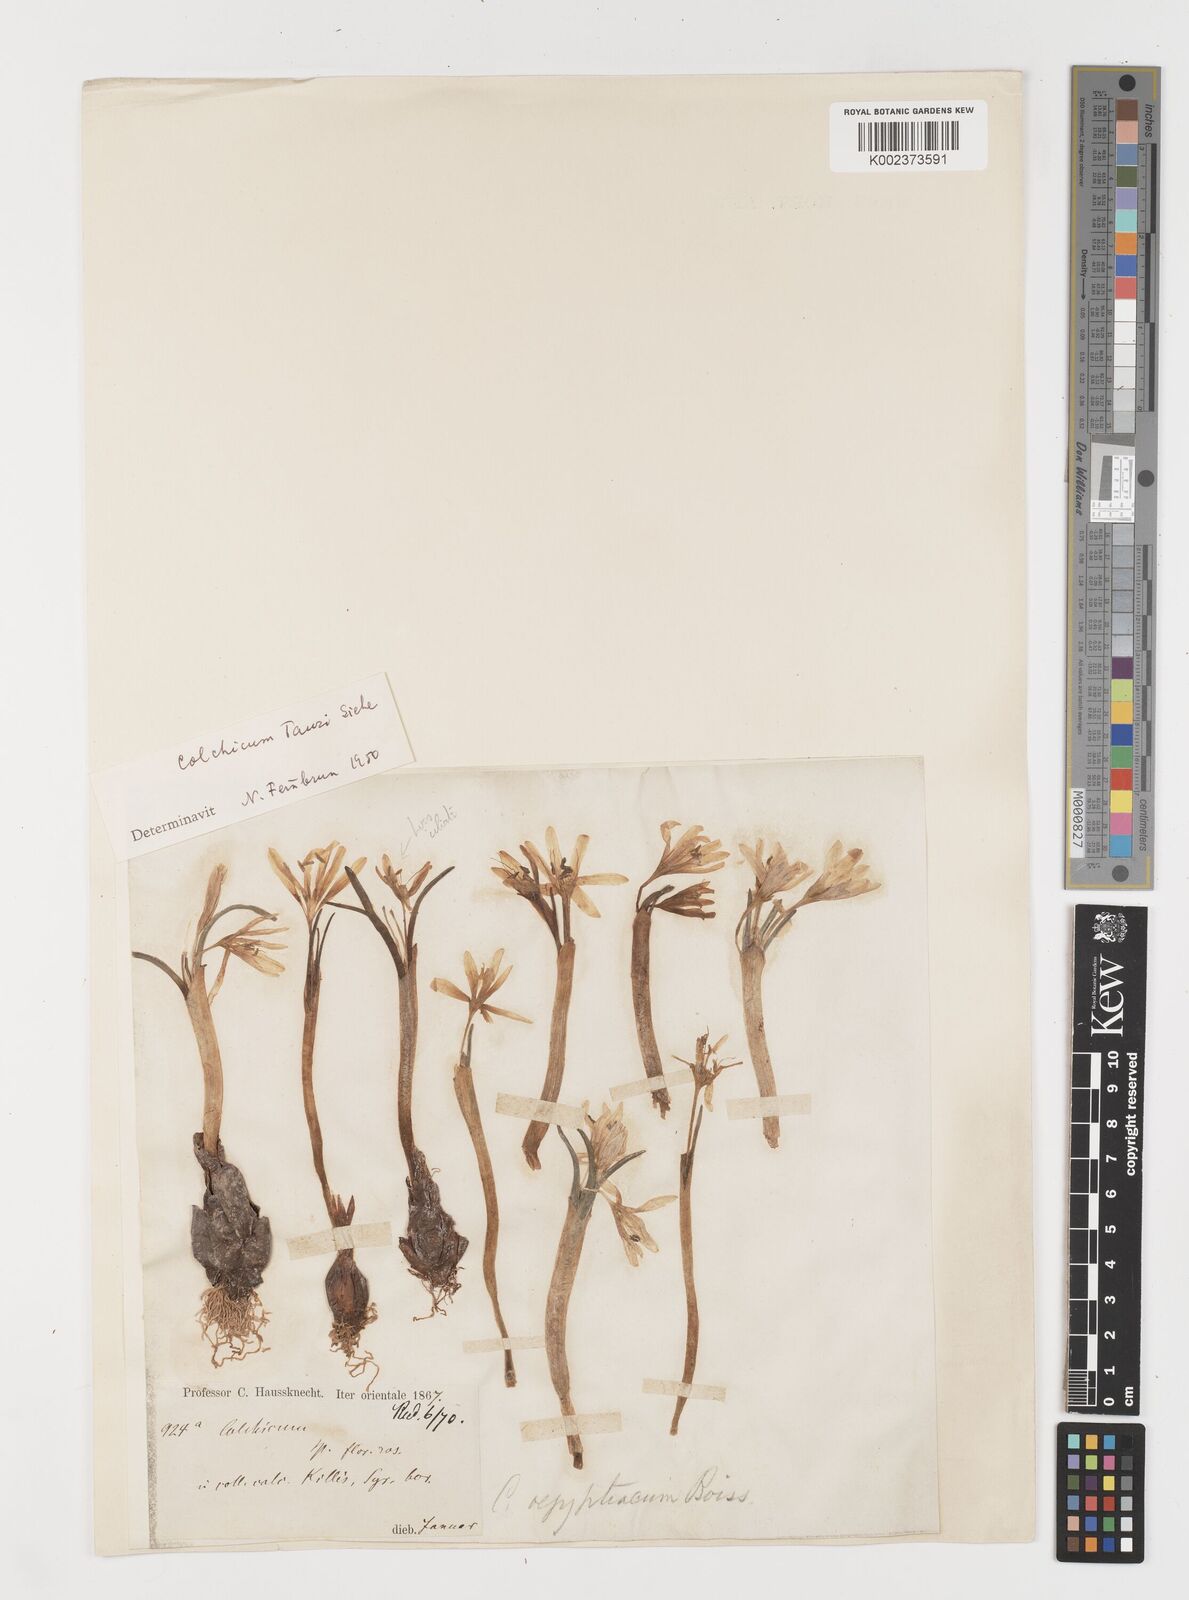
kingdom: Plantae
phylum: Tracheophyta
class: Liliopsida
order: Liliales
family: Colchicaceae
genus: Colchicum
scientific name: Colchicum serpentinum
